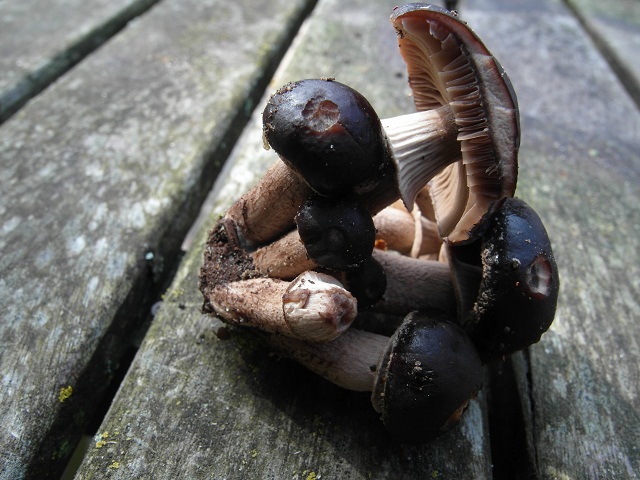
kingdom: Fungi
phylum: Basidiomycota
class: Agaricomycetes
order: Agaricales
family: Tubariaceae
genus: Cyclocybe
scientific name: Cyclocybe erebia
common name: mørk agerhat
